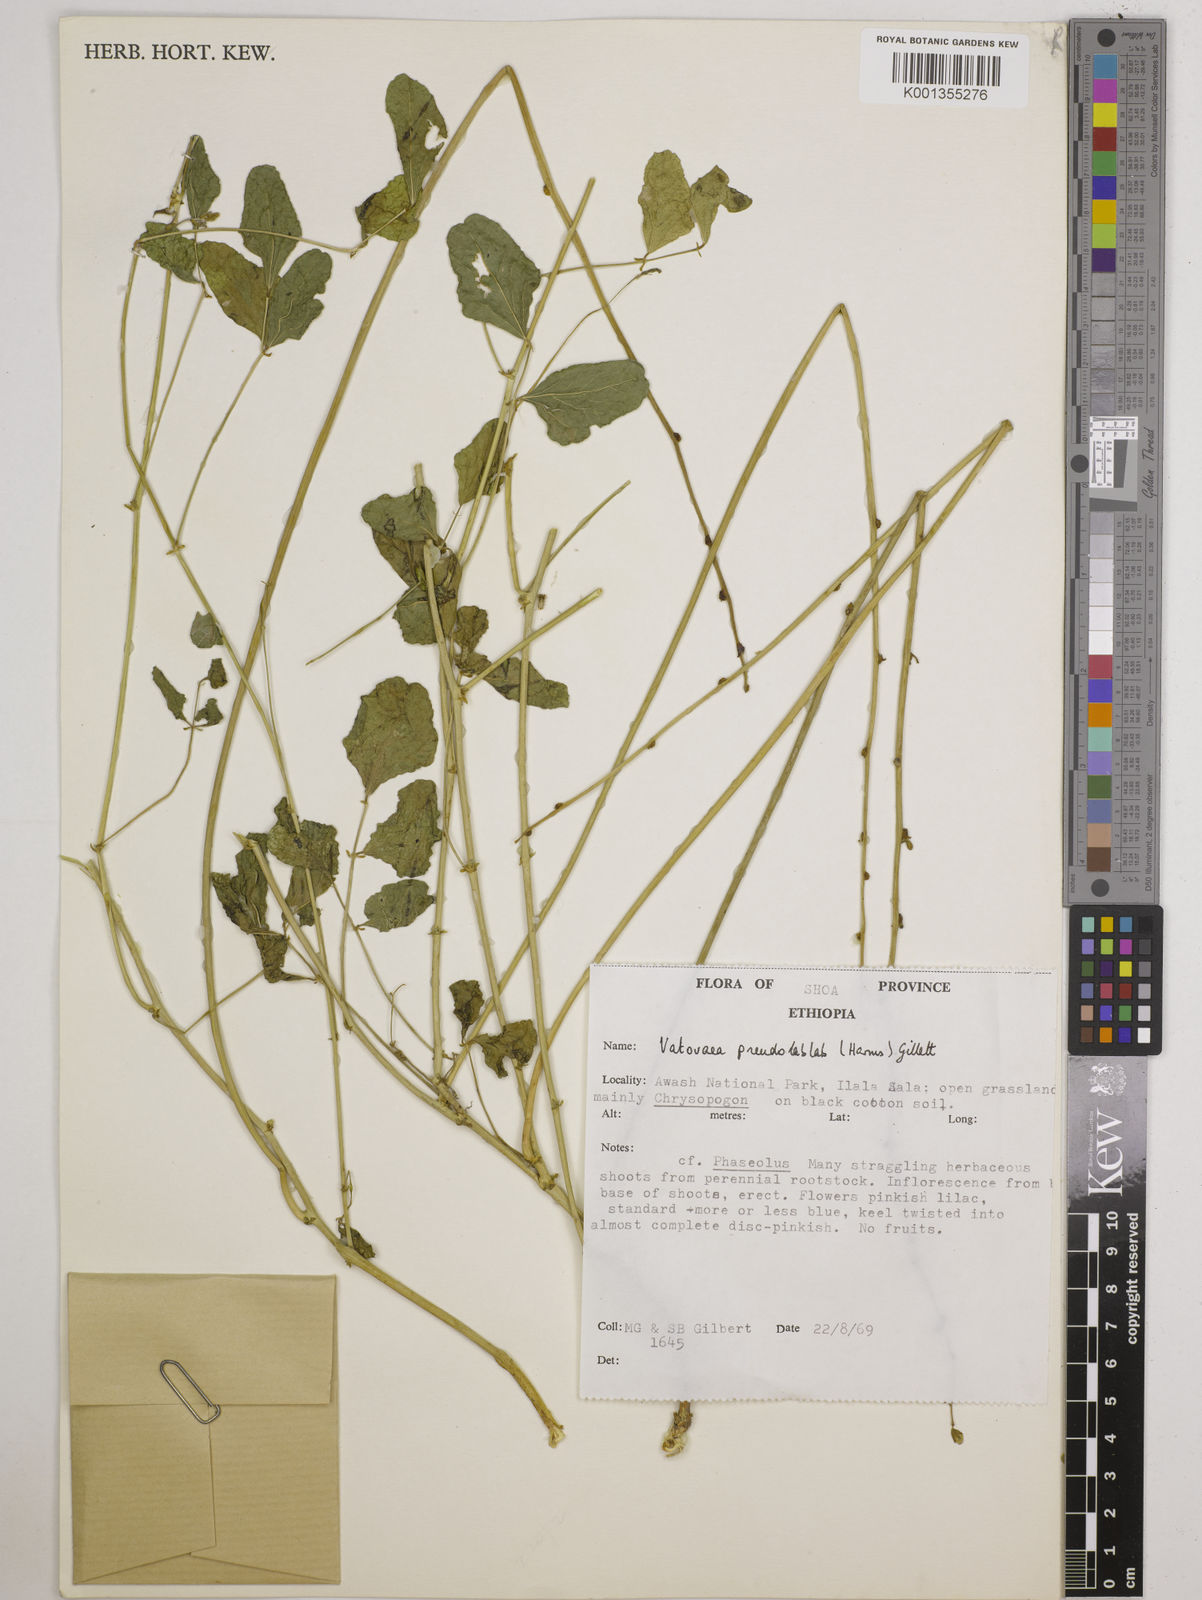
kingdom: Plantae
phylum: Tracheophyta
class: Magnoliopsida
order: Fabales
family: Fabaceae
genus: Vatovaea
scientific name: Vatovaea pseudolablab
